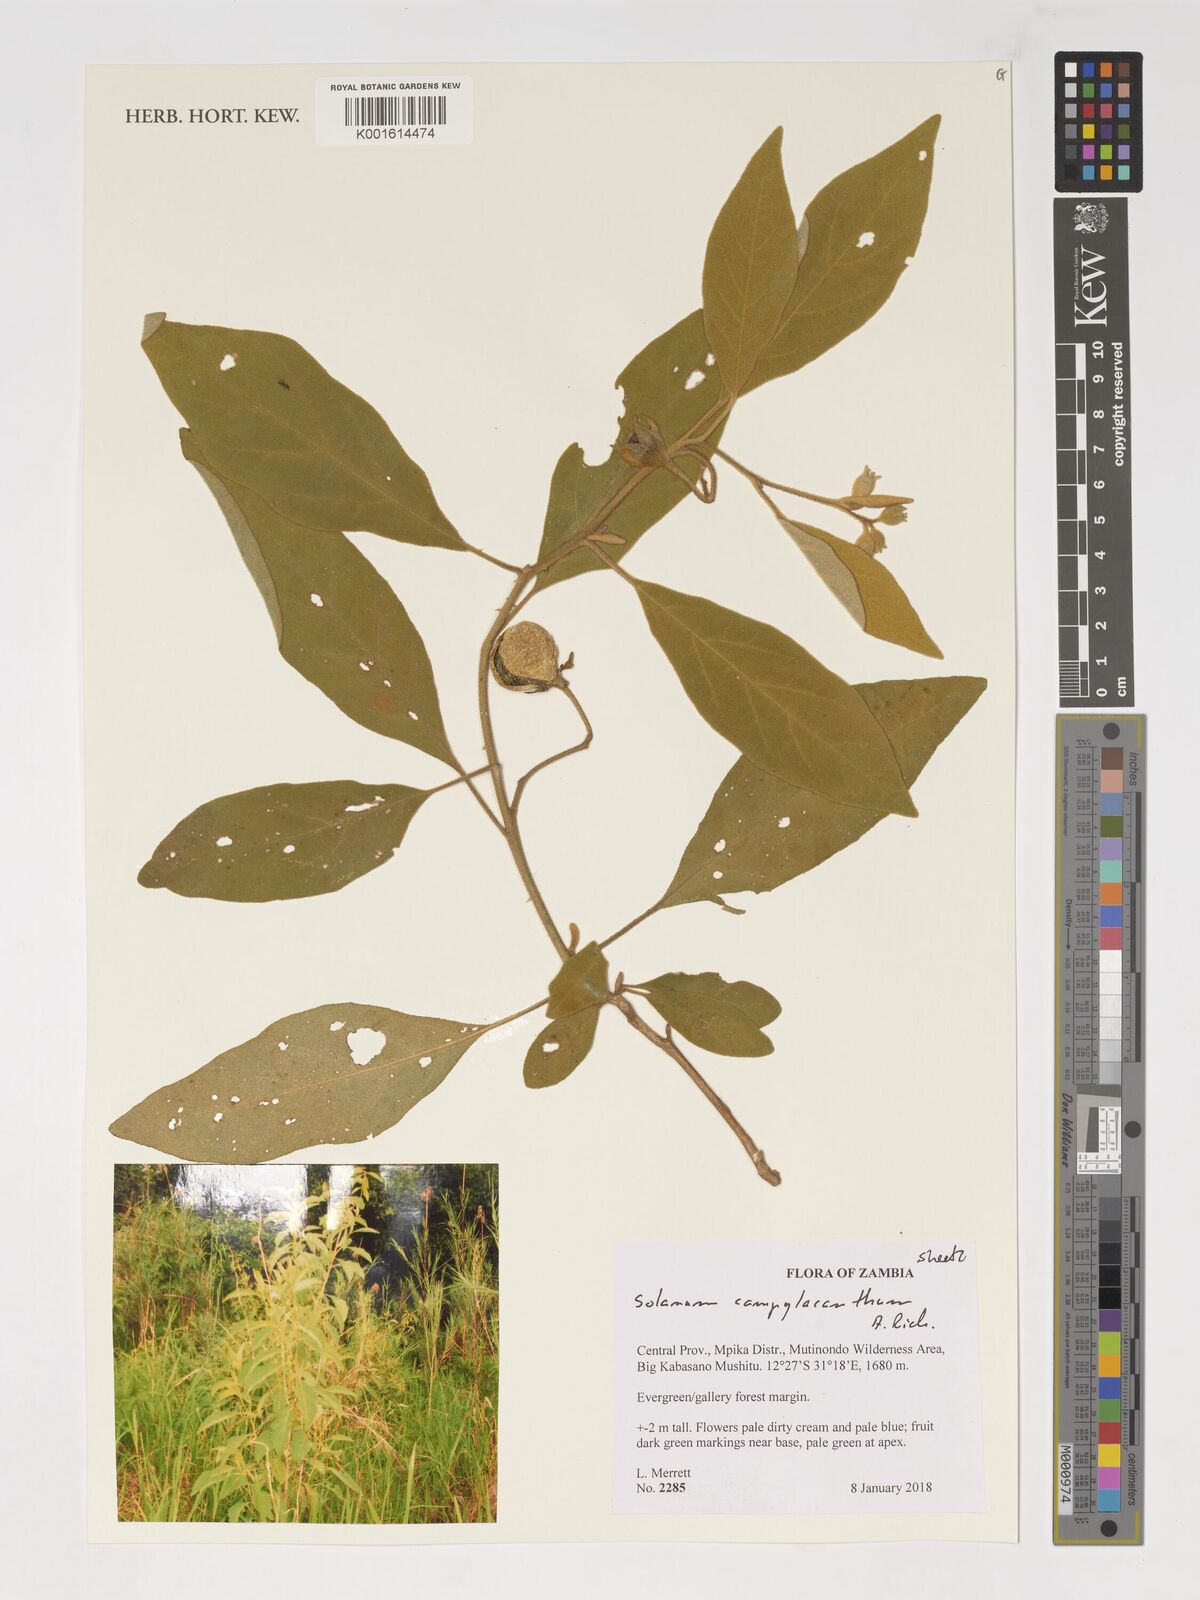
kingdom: Plantae
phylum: Tracheophyta
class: Magnoliopsida
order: Solanales
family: Solanaceae
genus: Solanum
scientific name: Solanum campylacanthum
